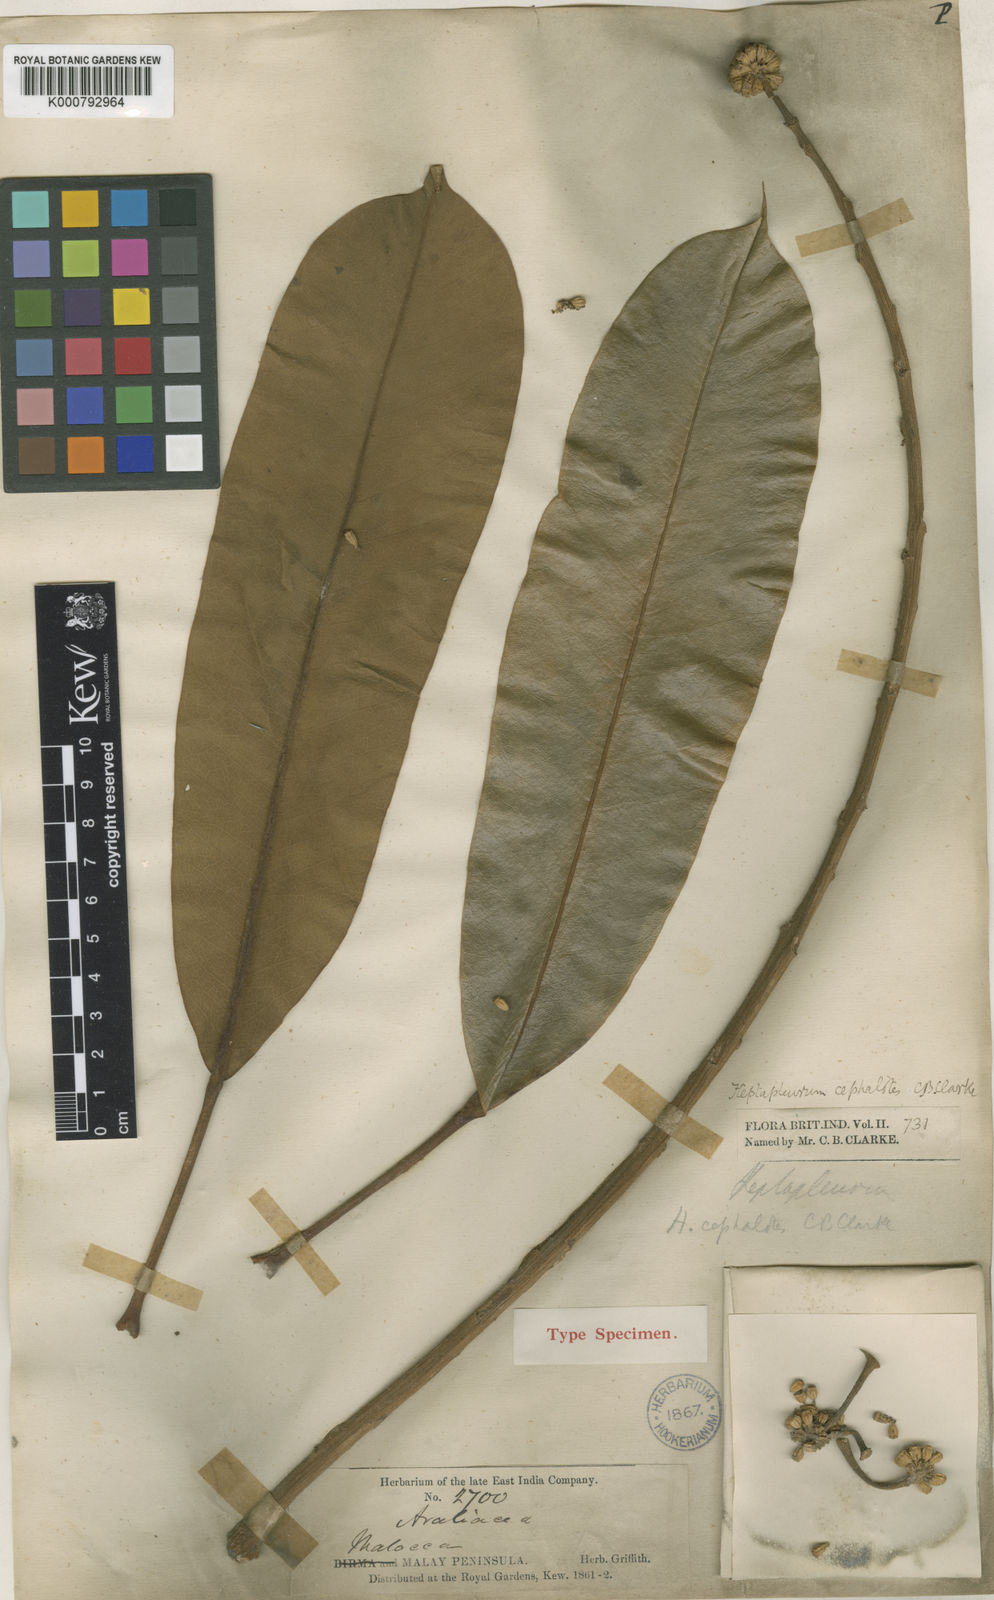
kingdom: Plantae
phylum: Tracheophyta
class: Magnoliopsida
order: Apiales
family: Araliaceae
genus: Heptapleurum
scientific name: Heptapleurum cephalotes
